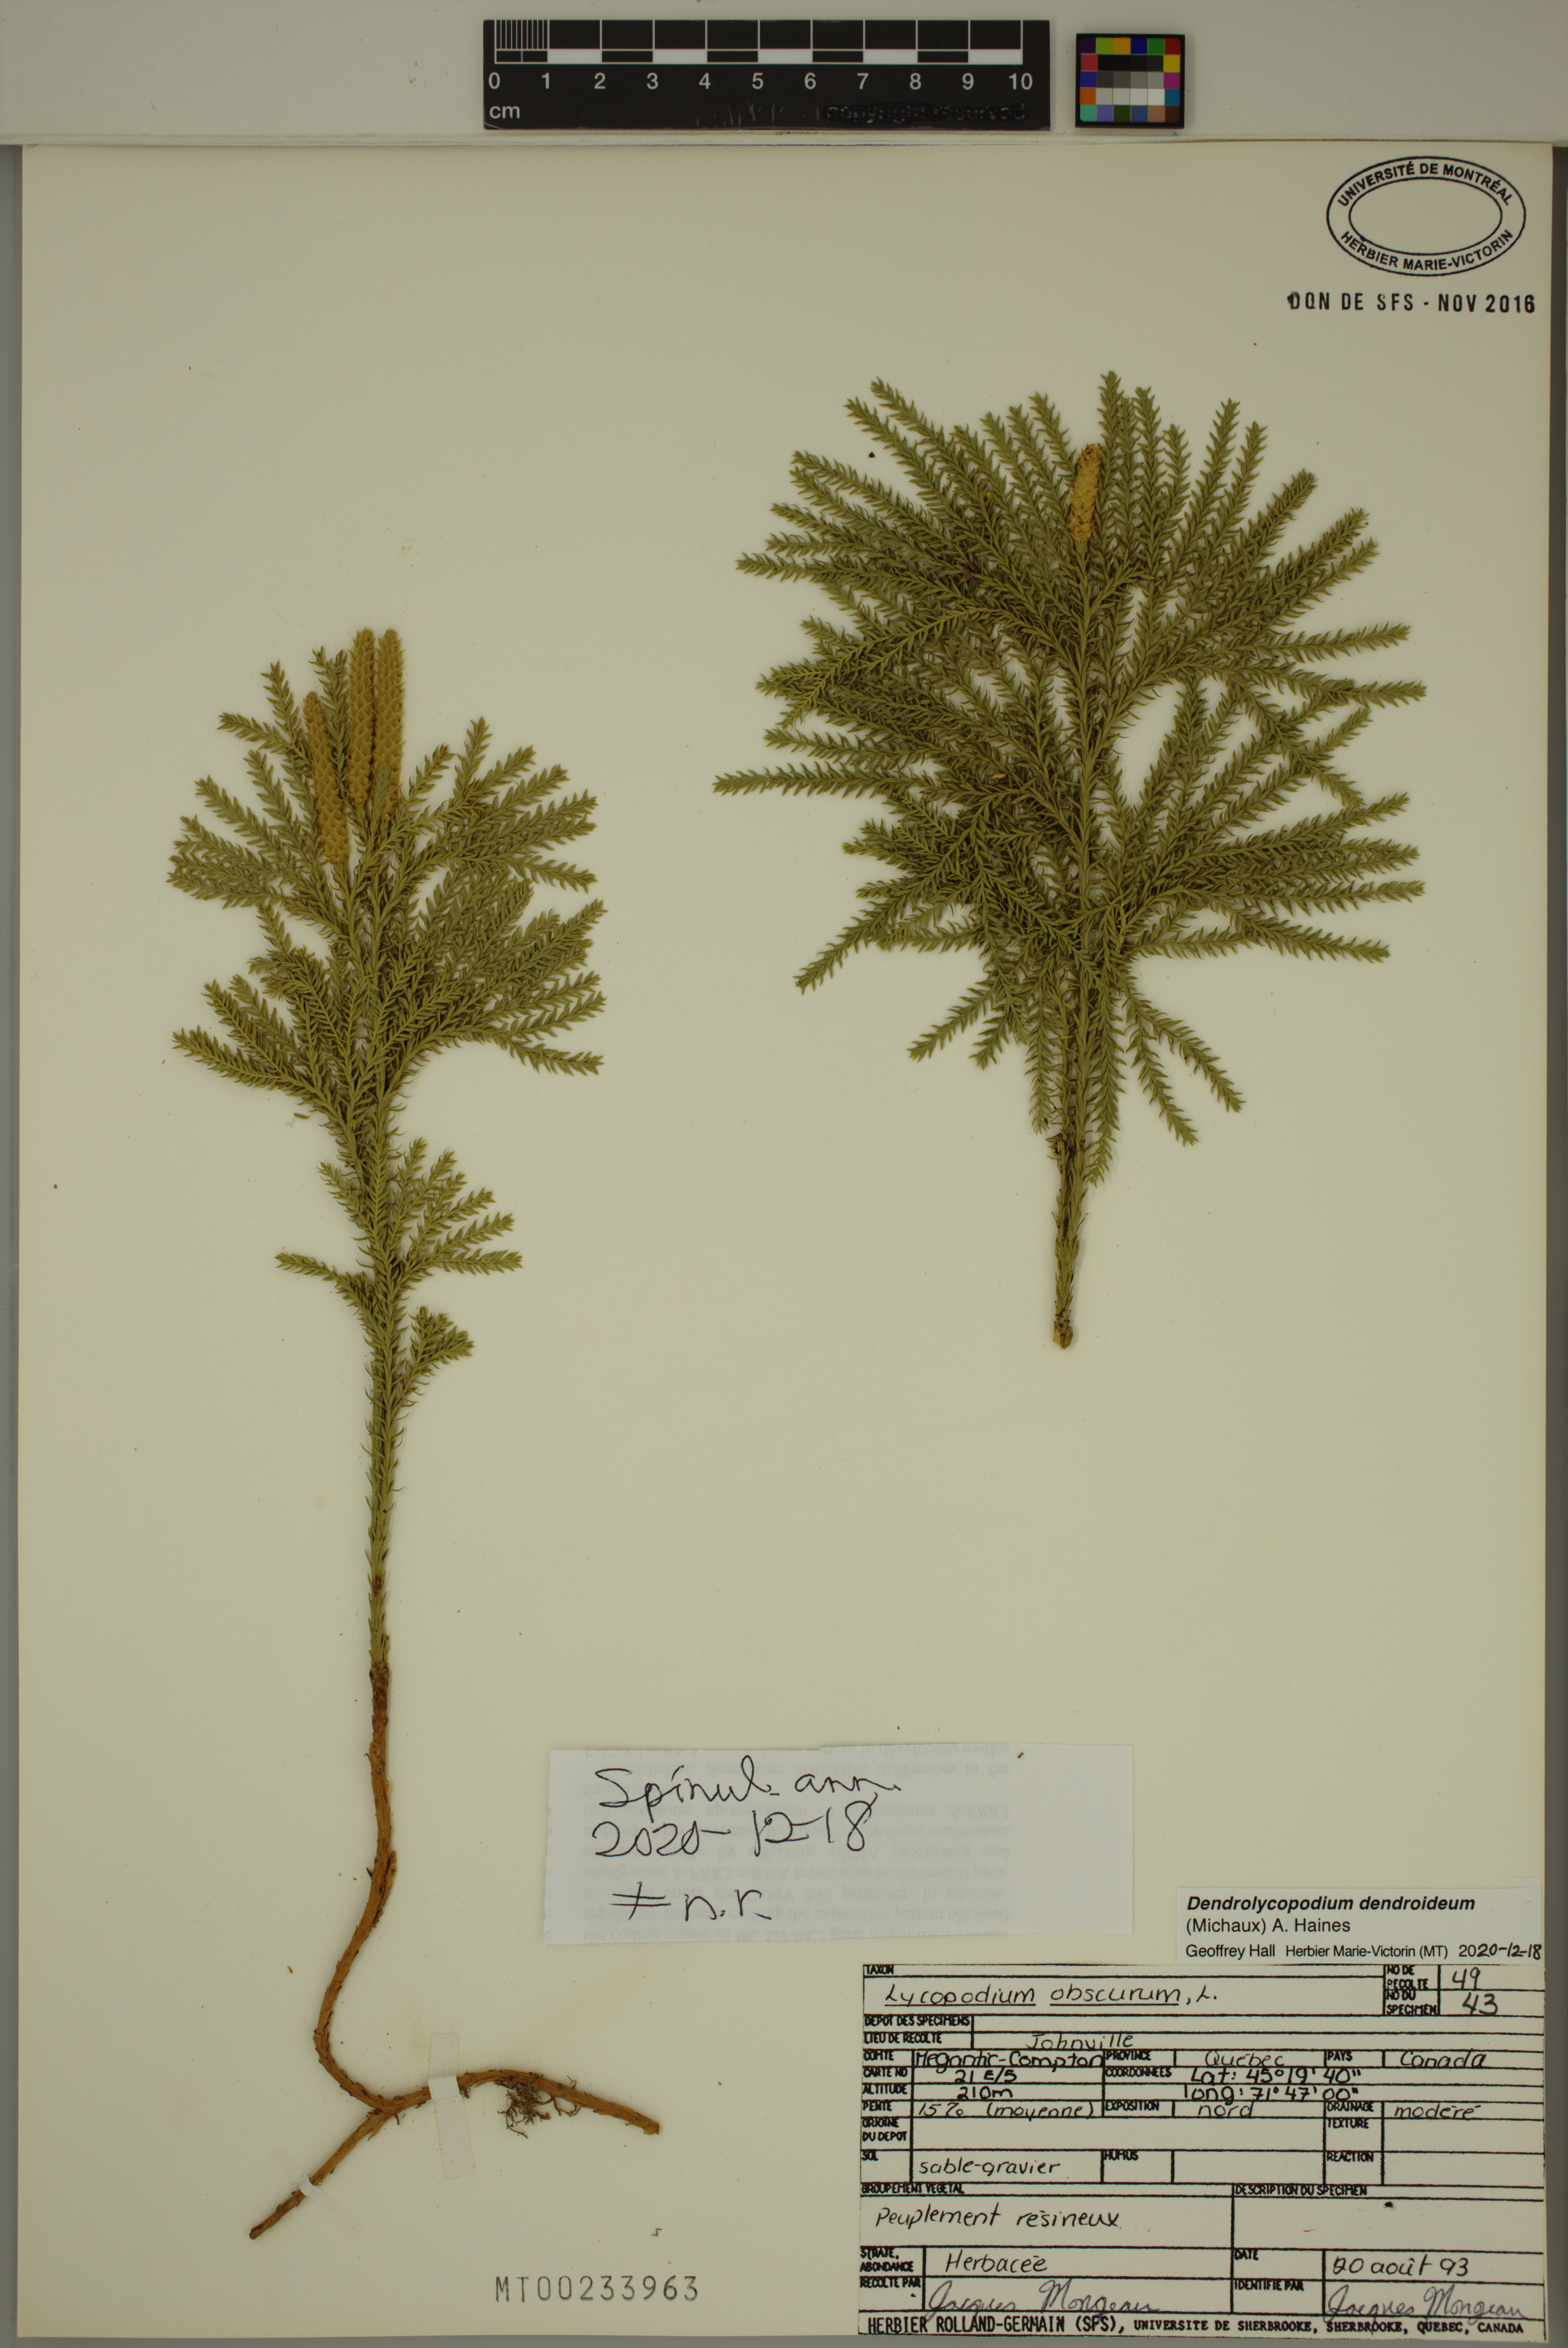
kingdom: Plantae
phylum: Tracheophyta
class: Lycopodiopsida
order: Lycopodiales
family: Lycopodiaceae
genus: Dendrolycopodium
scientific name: Dendrolycopodium dendroideum
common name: Northern tree-clubmoss
